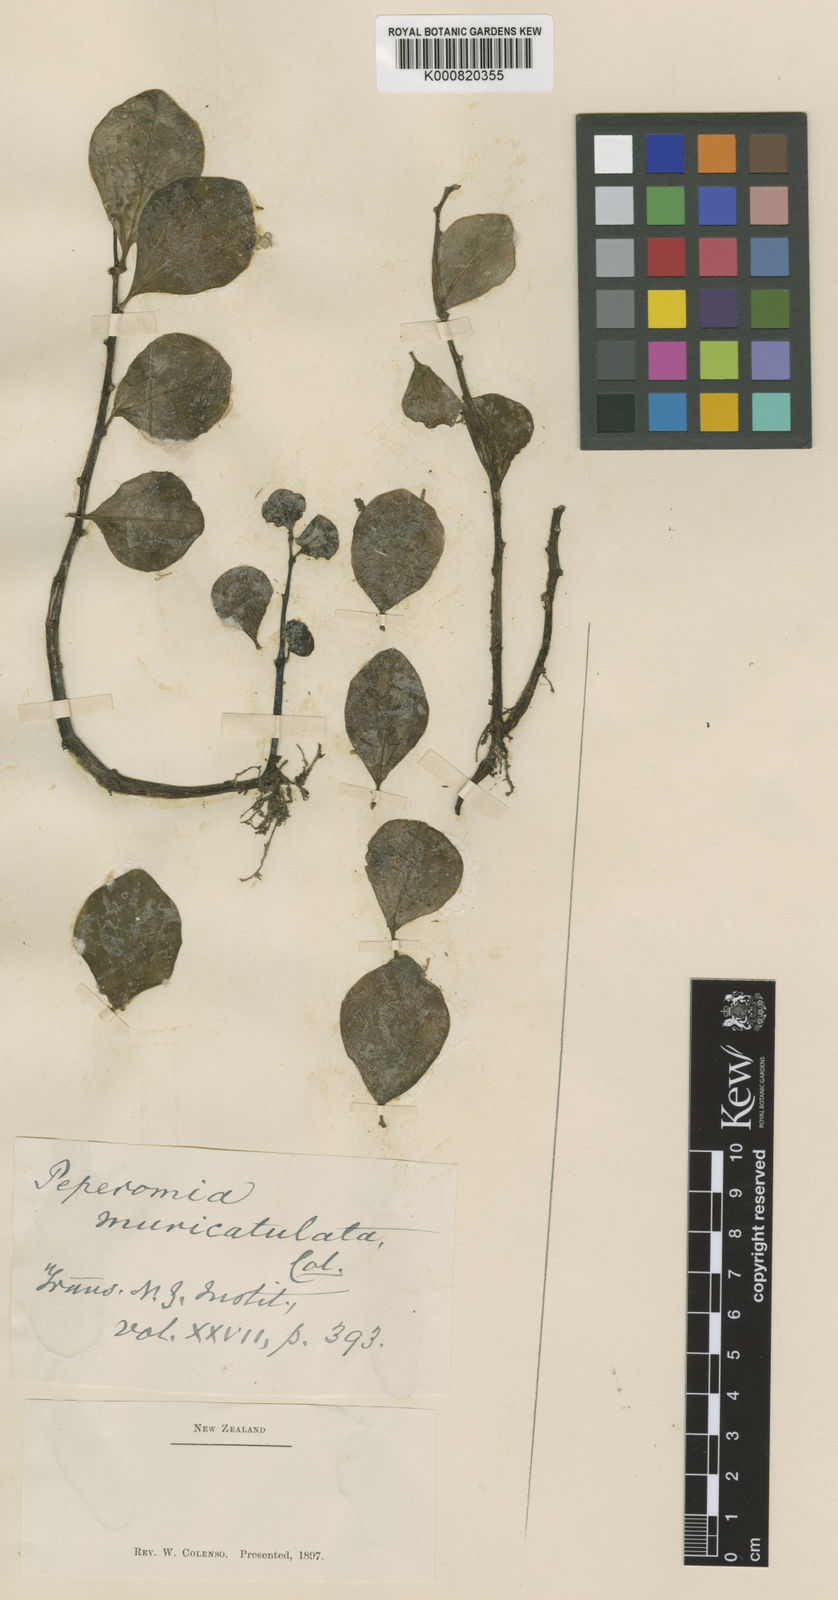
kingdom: Plantae
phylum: Tracheophyta
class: Magnoliopsida
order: Piperales
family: Piperaceae
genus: Peperomia
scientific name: Peperomia urvilleana
